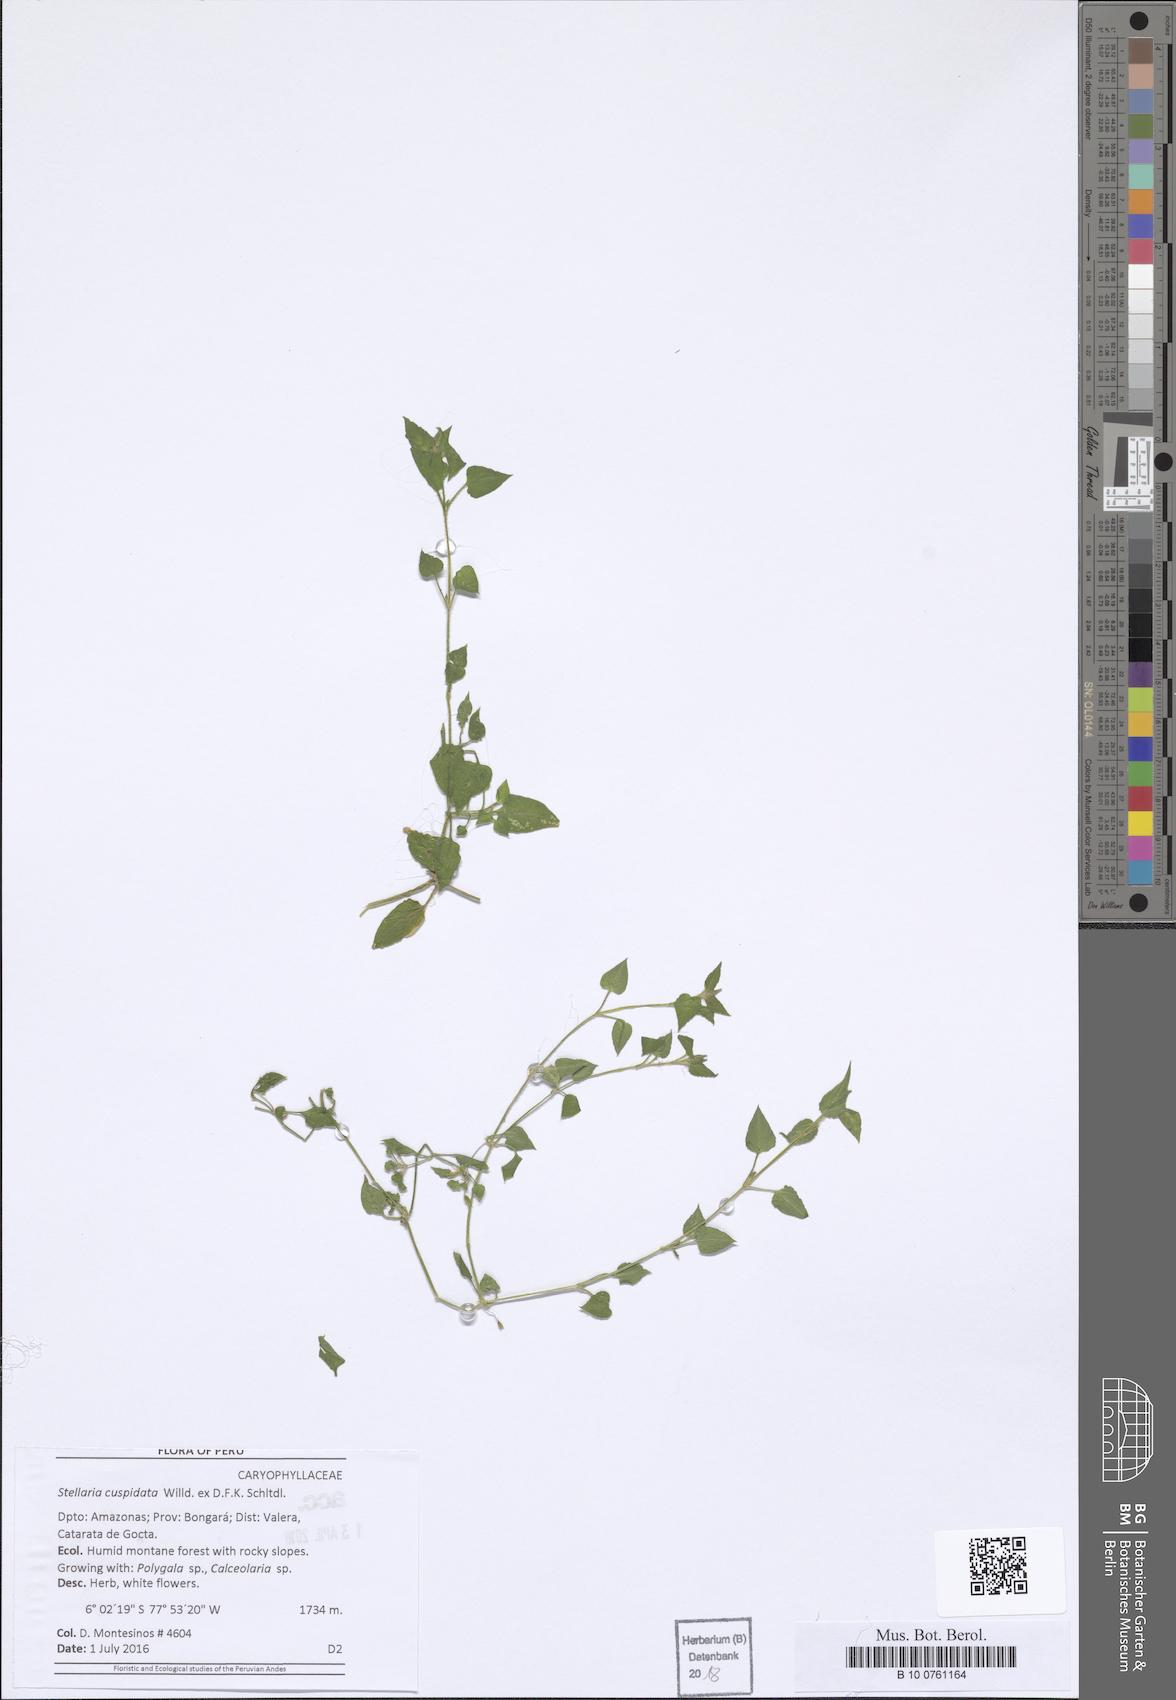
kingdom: Plantae
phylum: Tracheophyta
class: Magnoliopsida
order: Caryophyllales
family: Caryophyllaceae
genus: Stellaria
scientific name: Stellaria cuspidata
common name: Mexican chickweed
